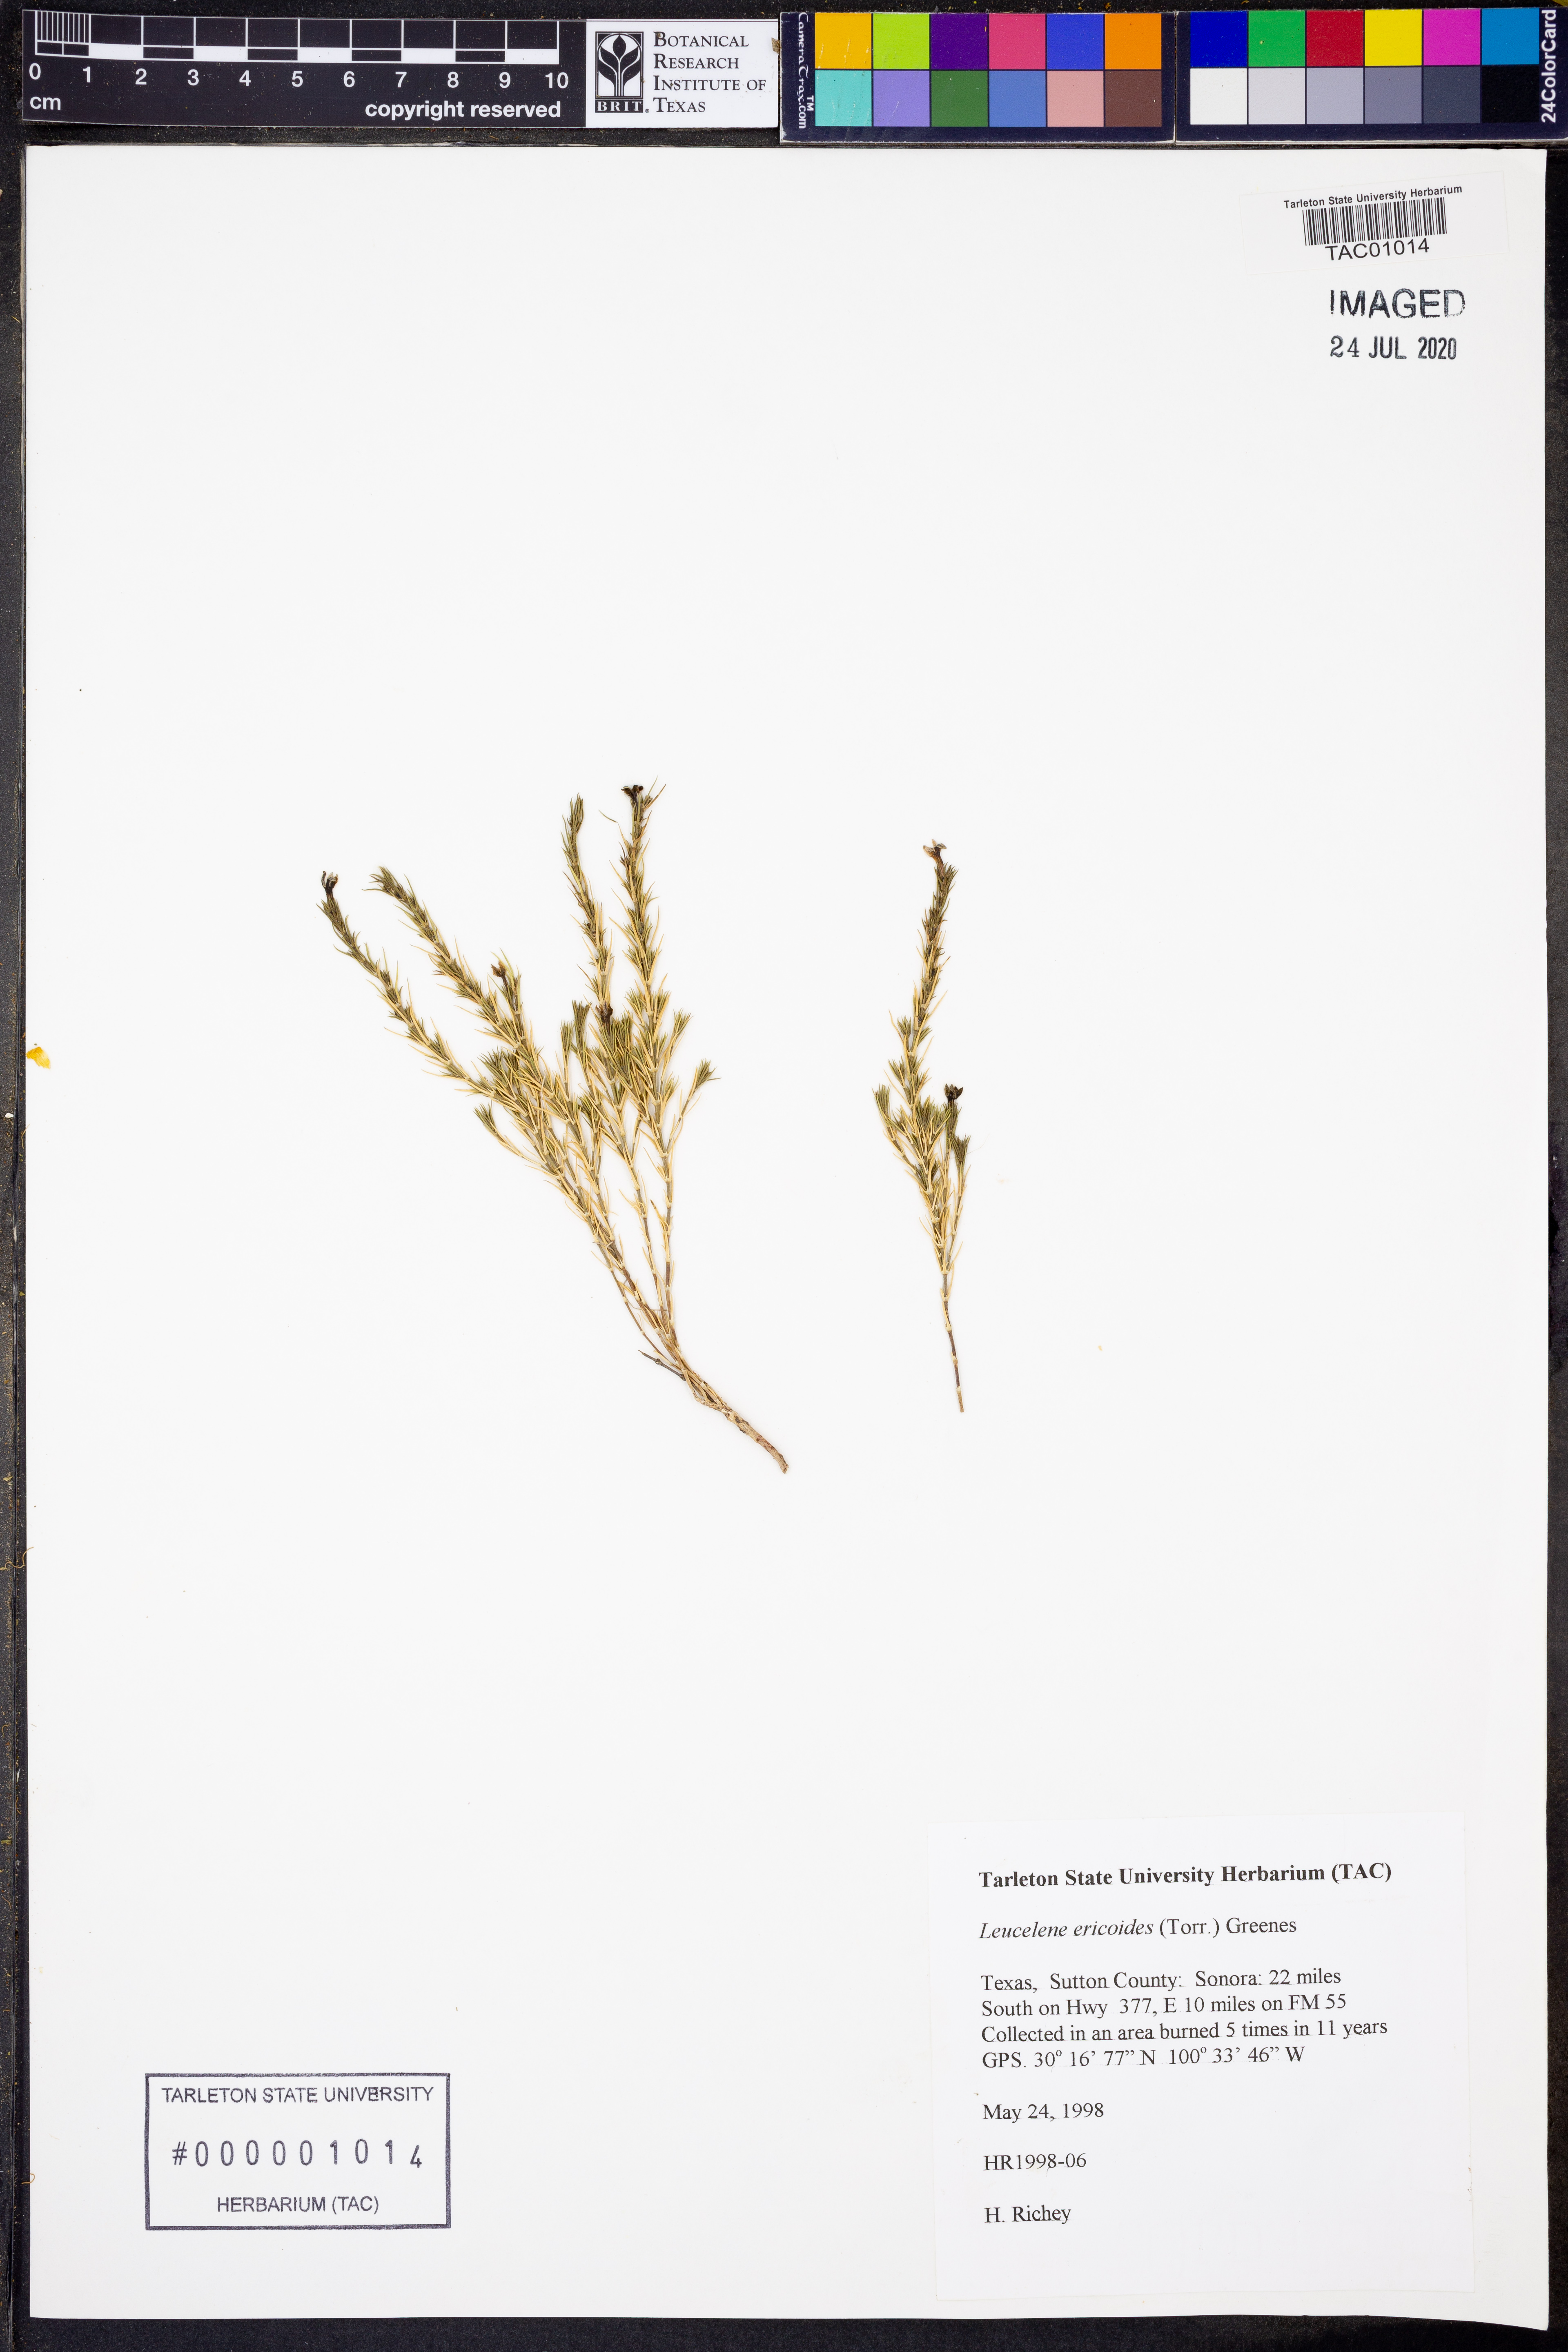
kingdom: Plantae
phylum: Tracheophyta
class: Magnoliopsida
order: Asterales
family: Asteraceae
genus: Chaetopappa
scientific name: Chaetopappa ericoides
